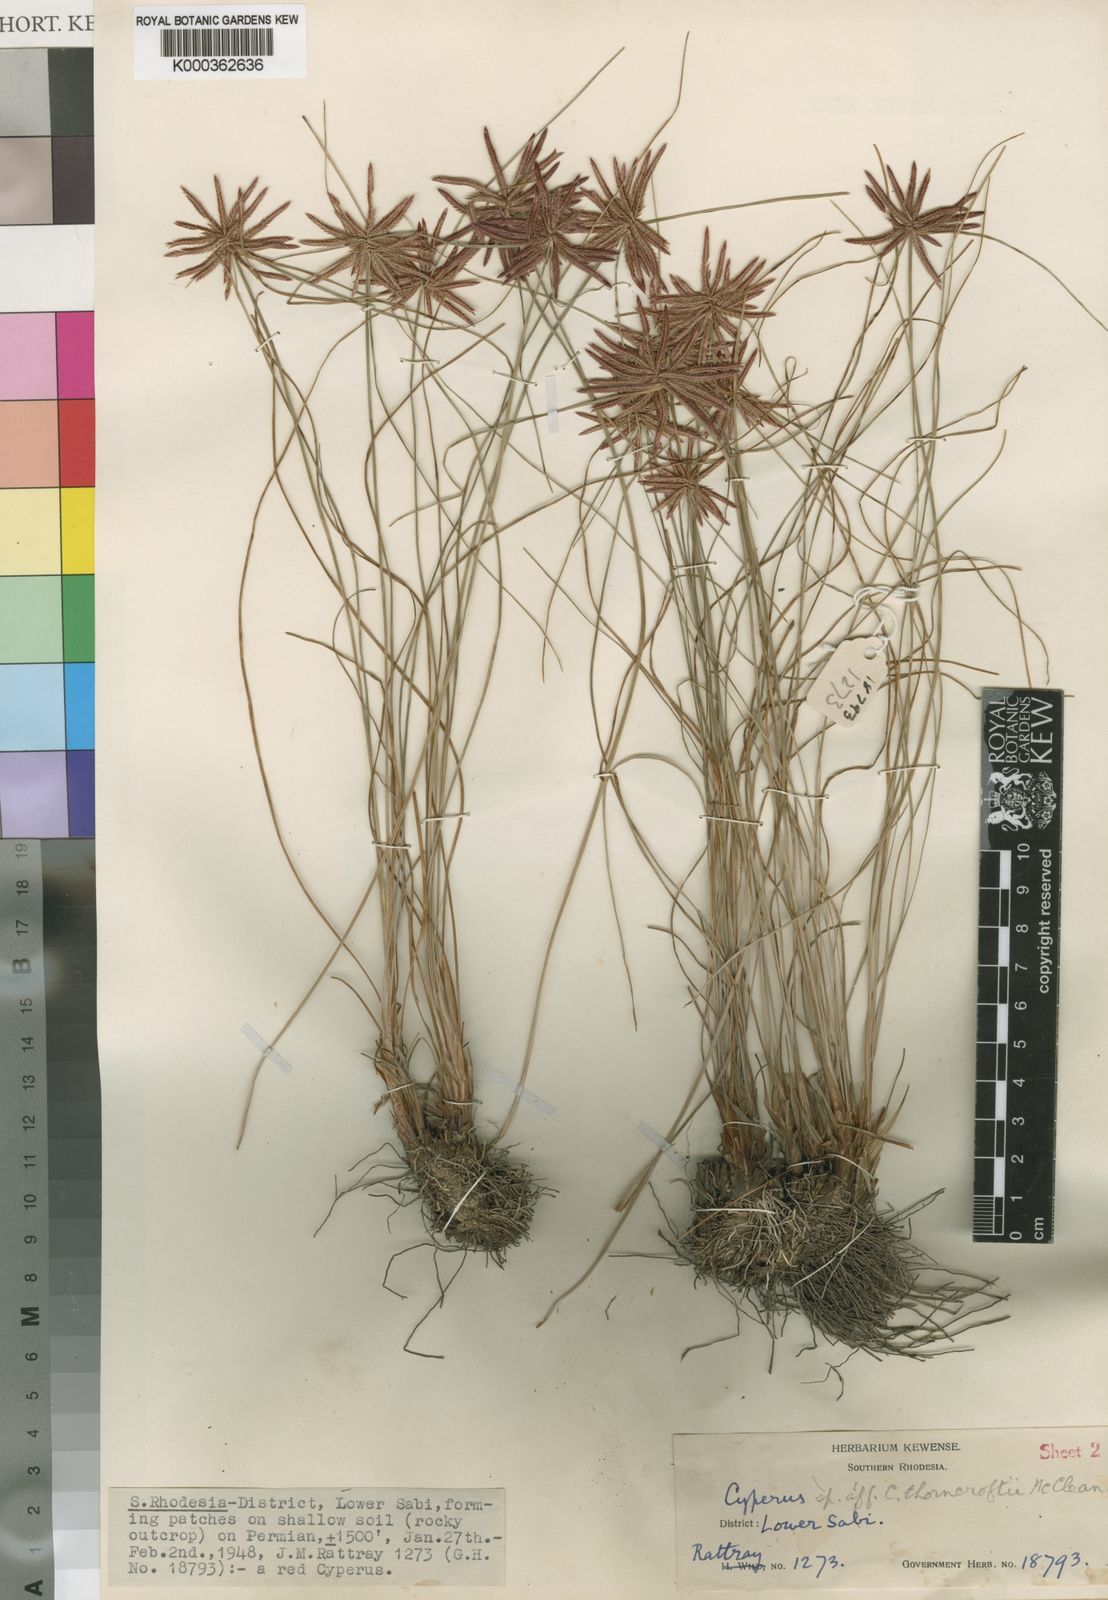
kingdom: Plantae
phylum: Tracheophyta
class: Liliopsida
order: Poales
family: Cyperaceae
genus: Cyperus
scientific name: Cyperus longispicula
